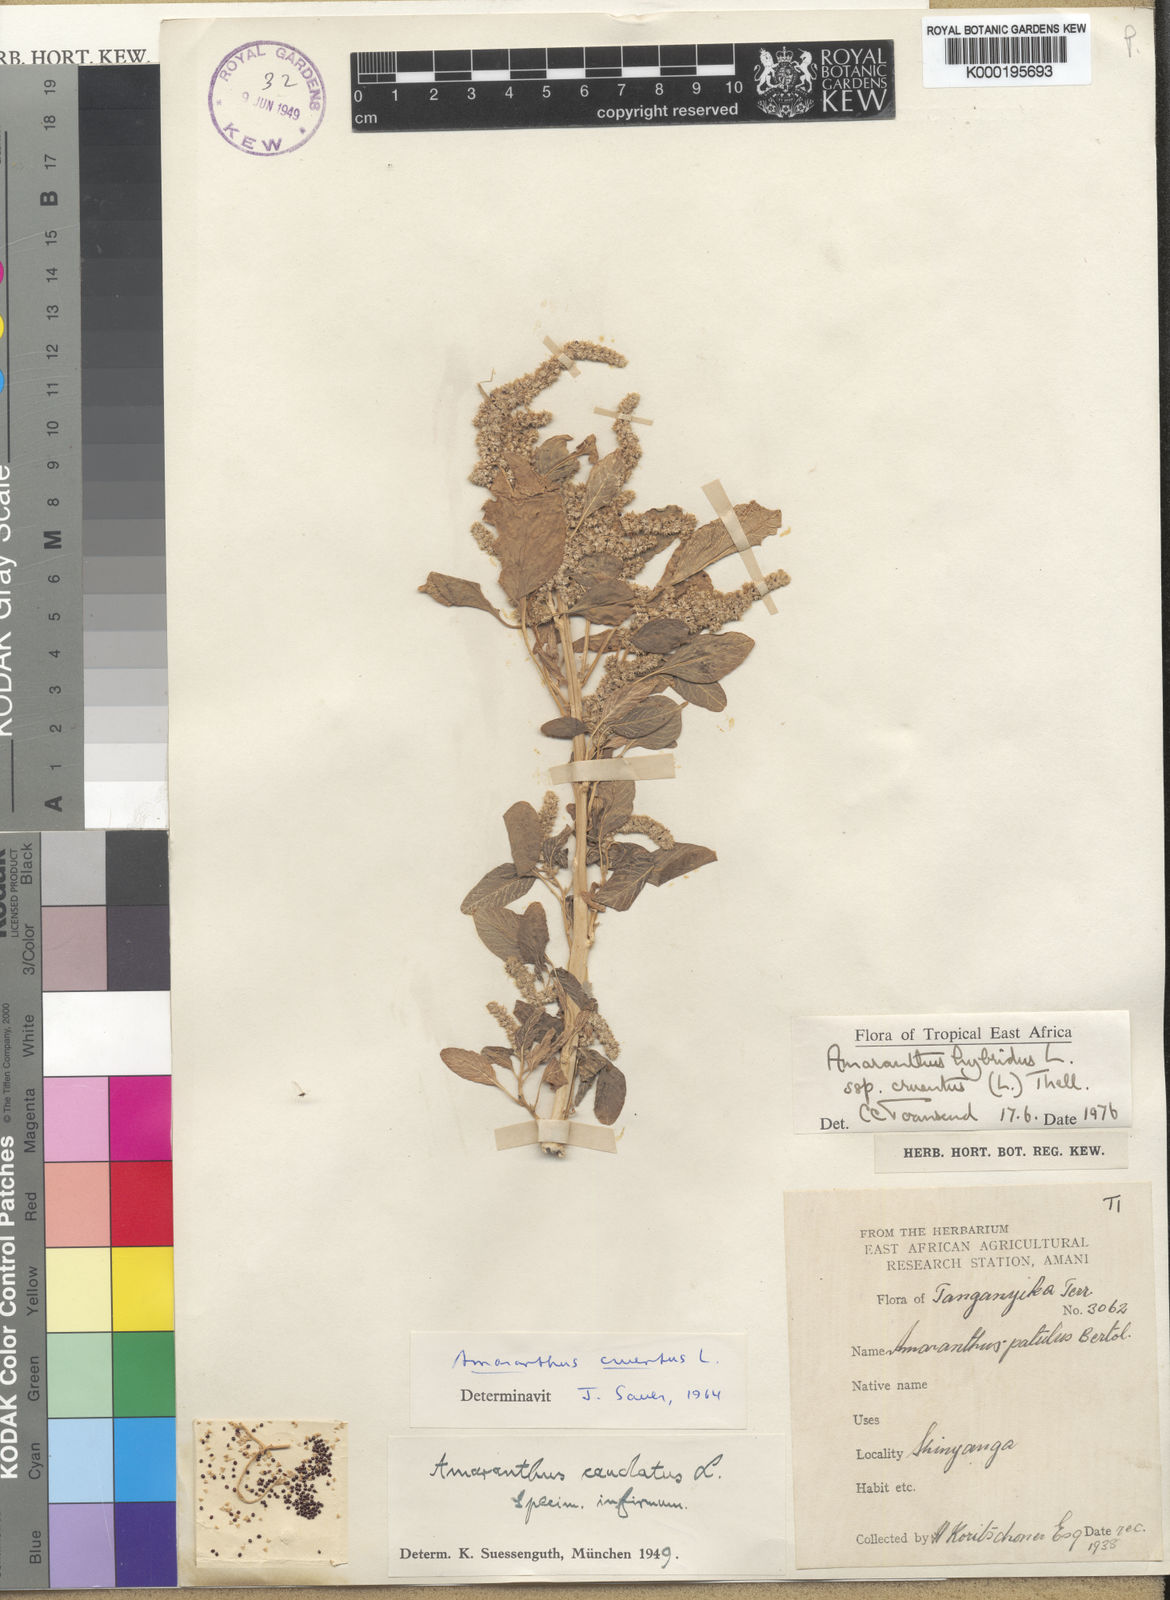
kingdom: Plantae
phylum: Tracheophyta
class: Magnoliopsida
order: Caryophyllales
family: Amaranthaceae
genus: Amaranthus
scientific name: Amaranthus cruentus
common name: Purple amaranth
